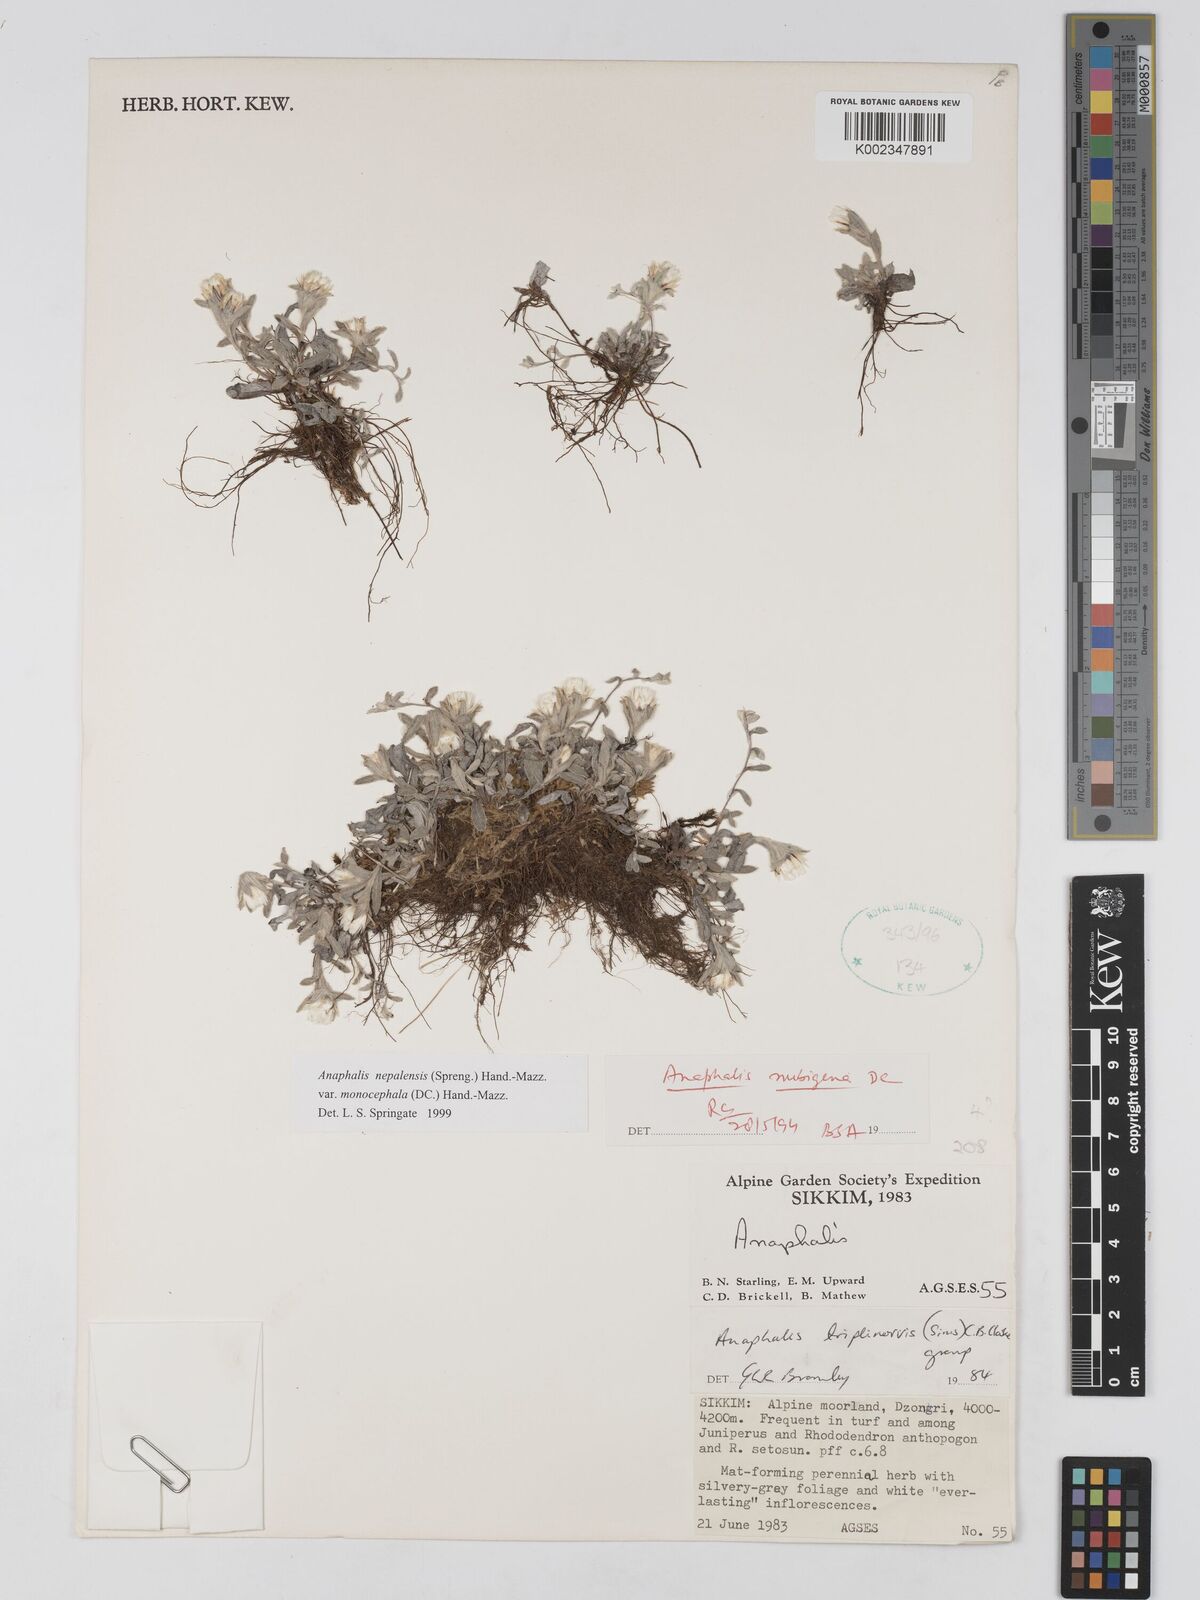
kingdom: Plantae
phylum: Tracheophyta
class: Magnoliopsida
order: Asterales
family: Asteraceae
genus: Anaphalis
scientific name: Anaphalis nepalensis
